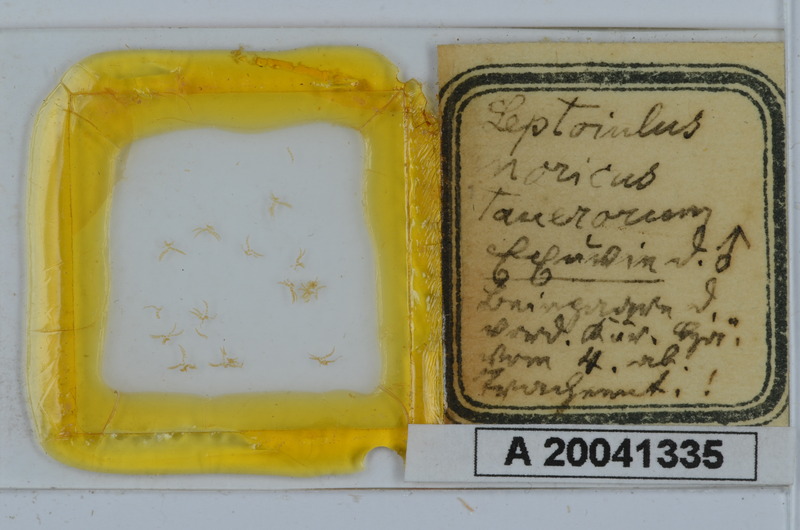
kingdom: Animalia
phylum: Arthropoda
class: Diplopoda
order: Julida
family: Julidae
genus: Leptoiulus
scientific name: Leptoiulus noricus
